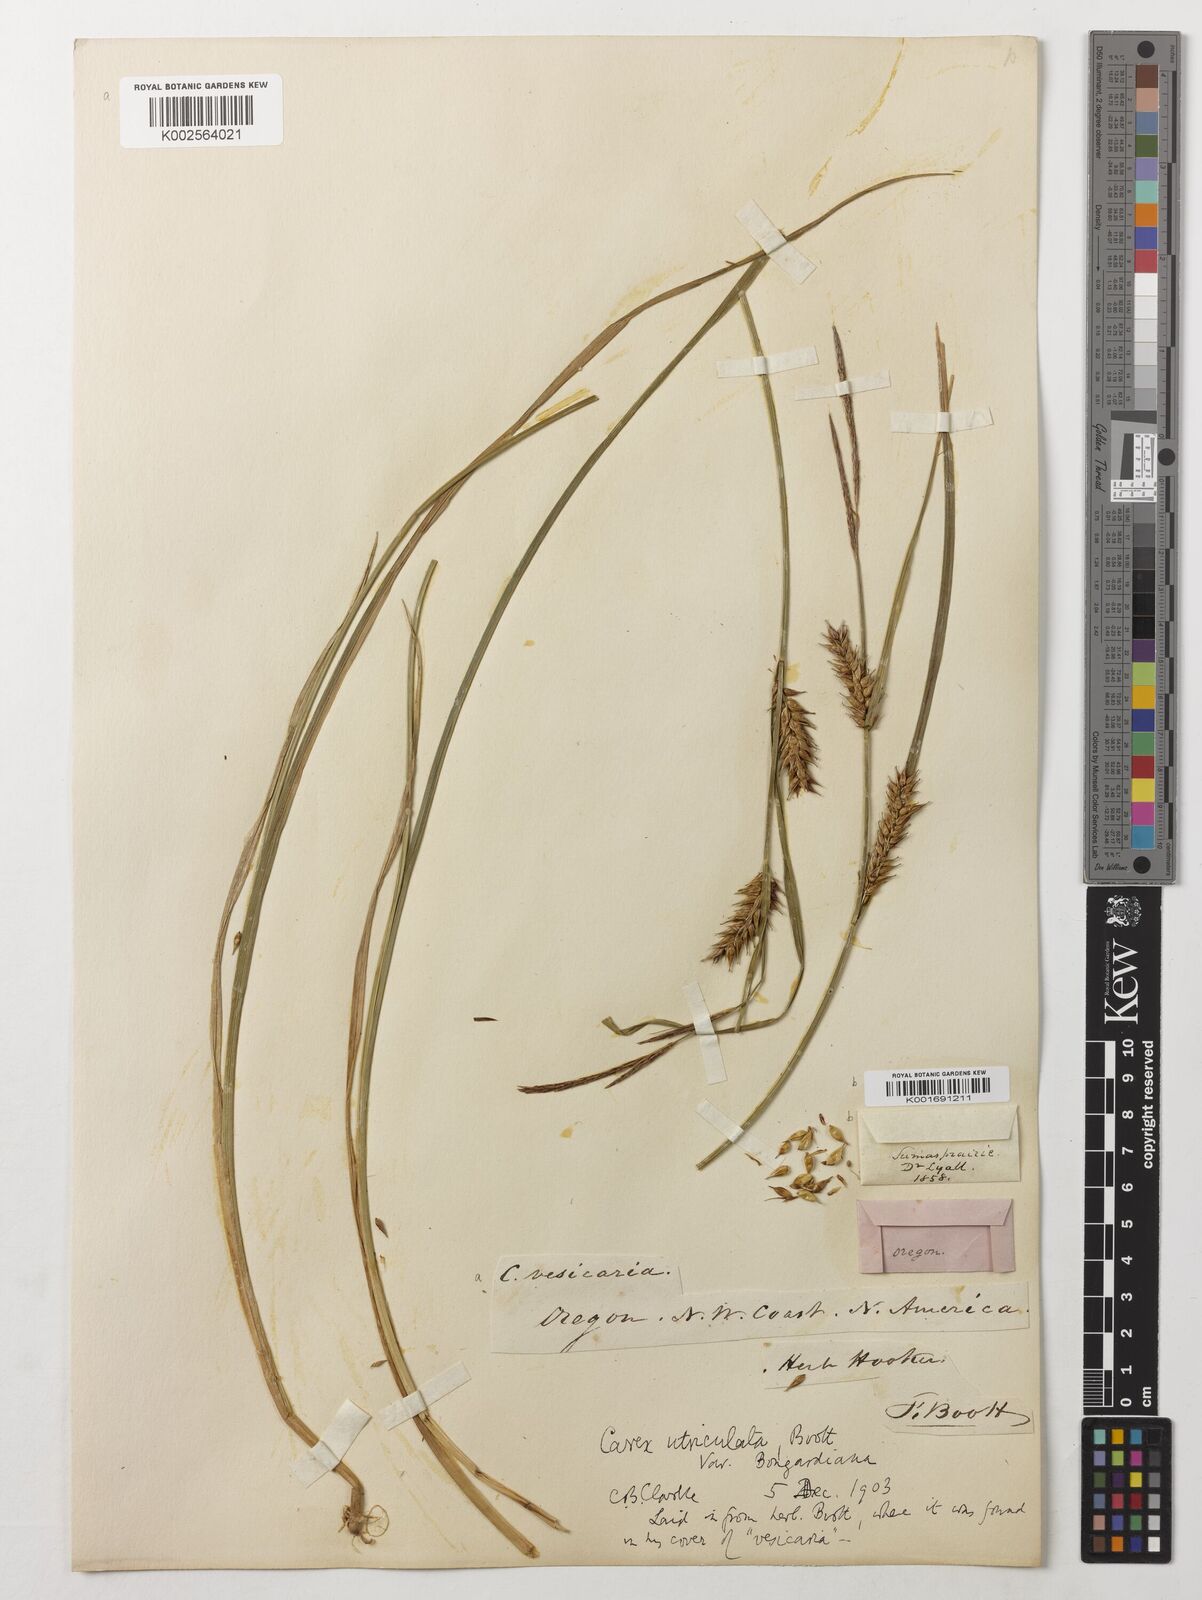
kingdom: Plantae
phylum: Tracheophyta
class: Liliopsida
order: Poales
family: Cyperaceae
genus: Carex
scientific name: Carex utriculata
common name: Beaked sedge
